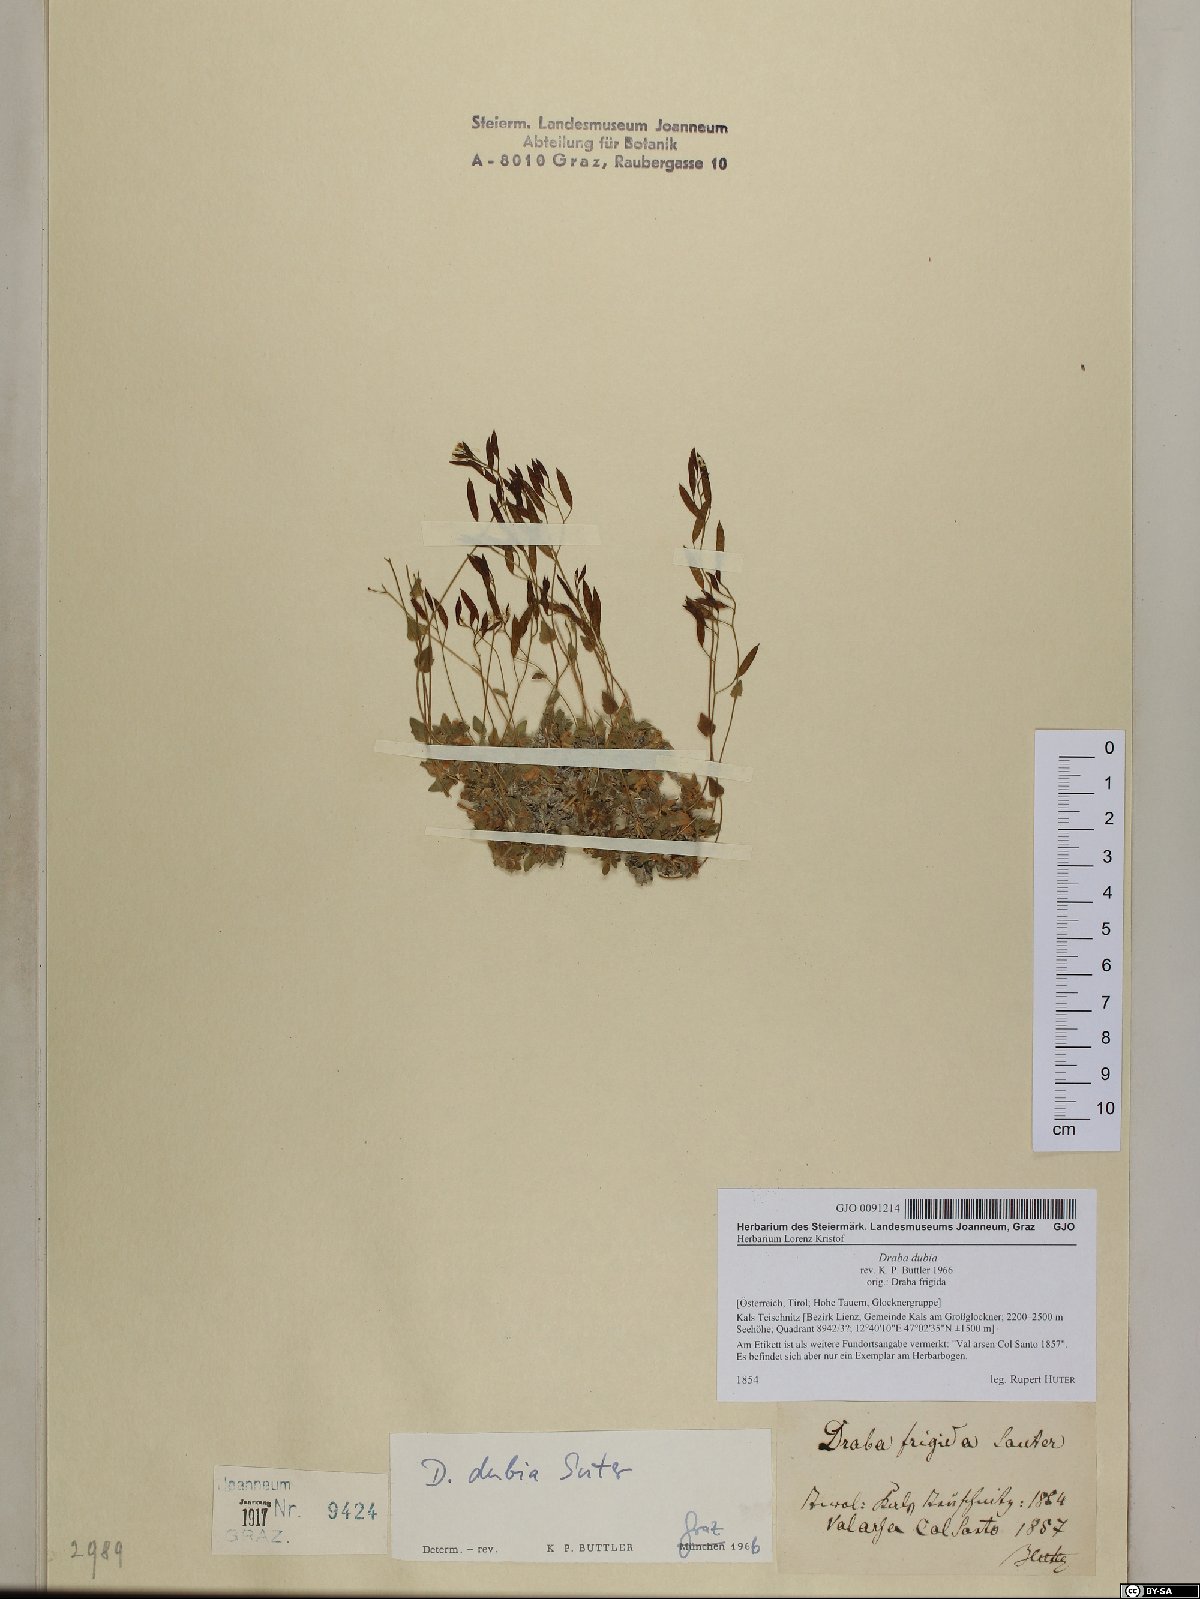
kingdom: Plantae
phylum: Tracheophyta
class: Magnoliopsida
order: Brassicales
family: Brassicaceae
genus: Draba
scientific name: Draba dubia
